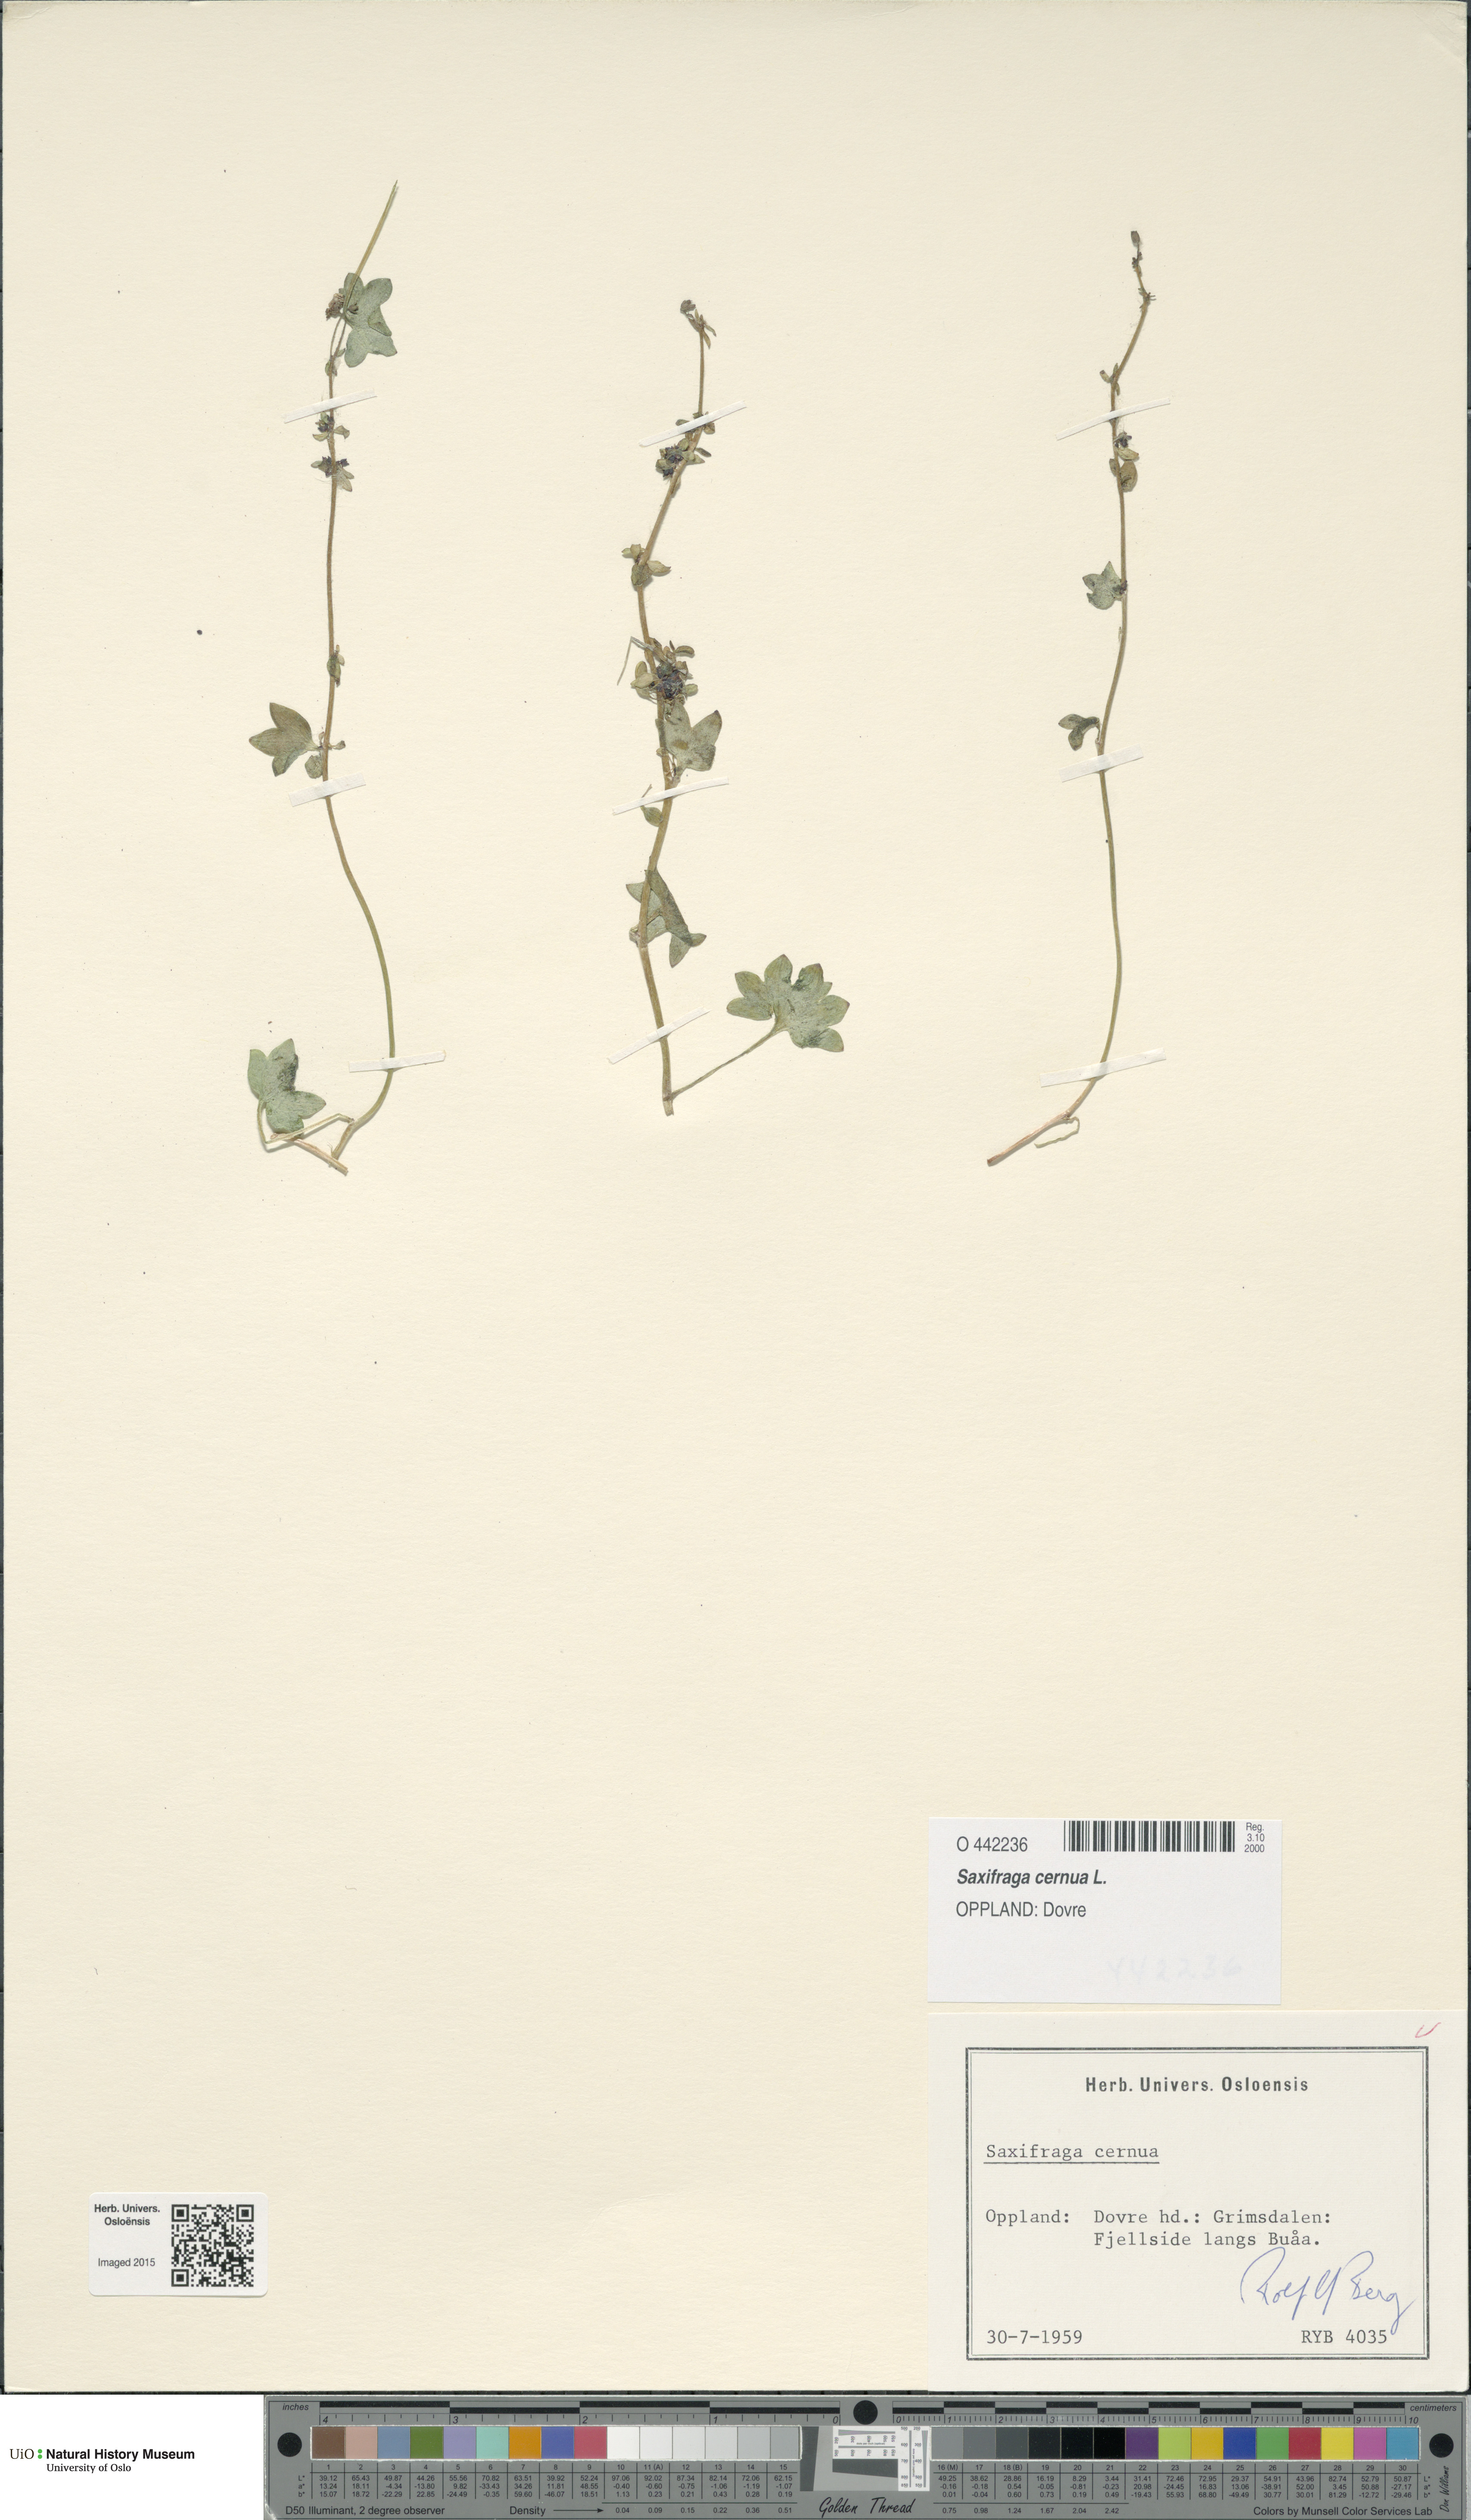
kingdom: Plantae
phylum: Tracheophyta
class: Magnoliopsida
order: Saxifragales
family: Saxifragaceae
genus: Saxifraga
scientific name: Saxifraga cernua
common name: Drooping saxifrage
